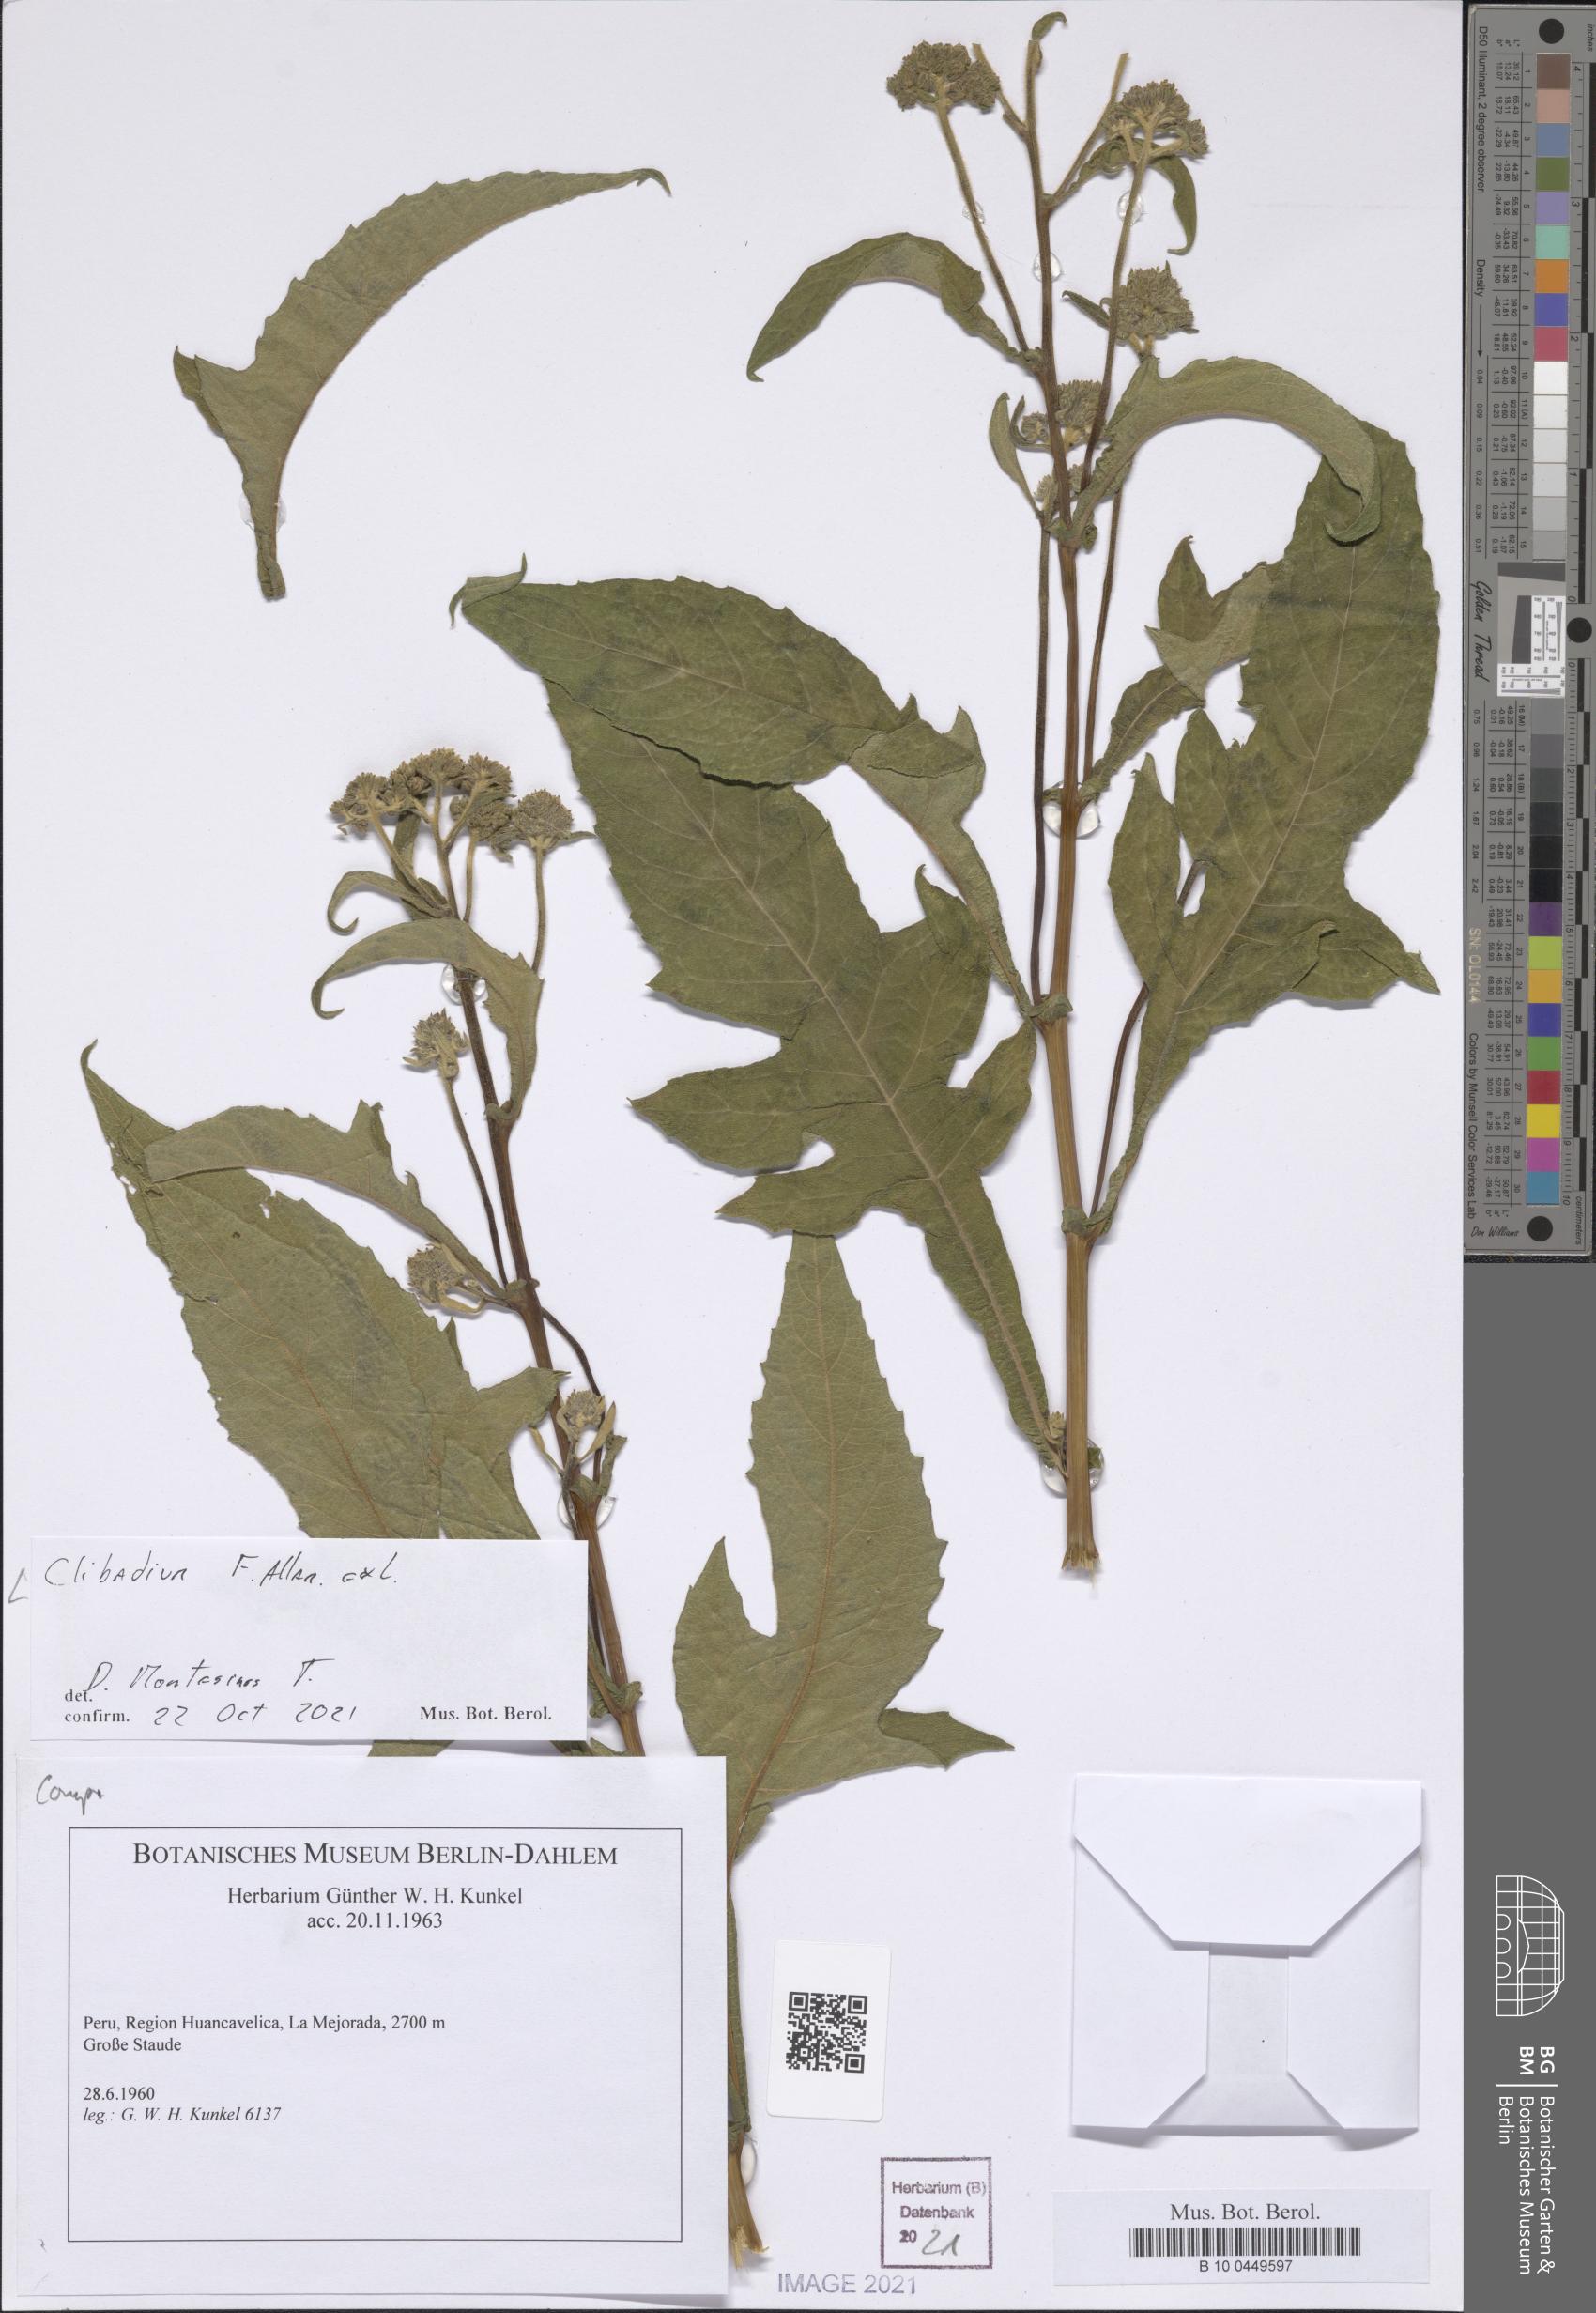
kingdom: Plantae
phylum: Tracheophyta
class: Magnoliopsida
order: Asterales
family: Asteraceae
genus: Clibadium
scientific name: Clibadium
